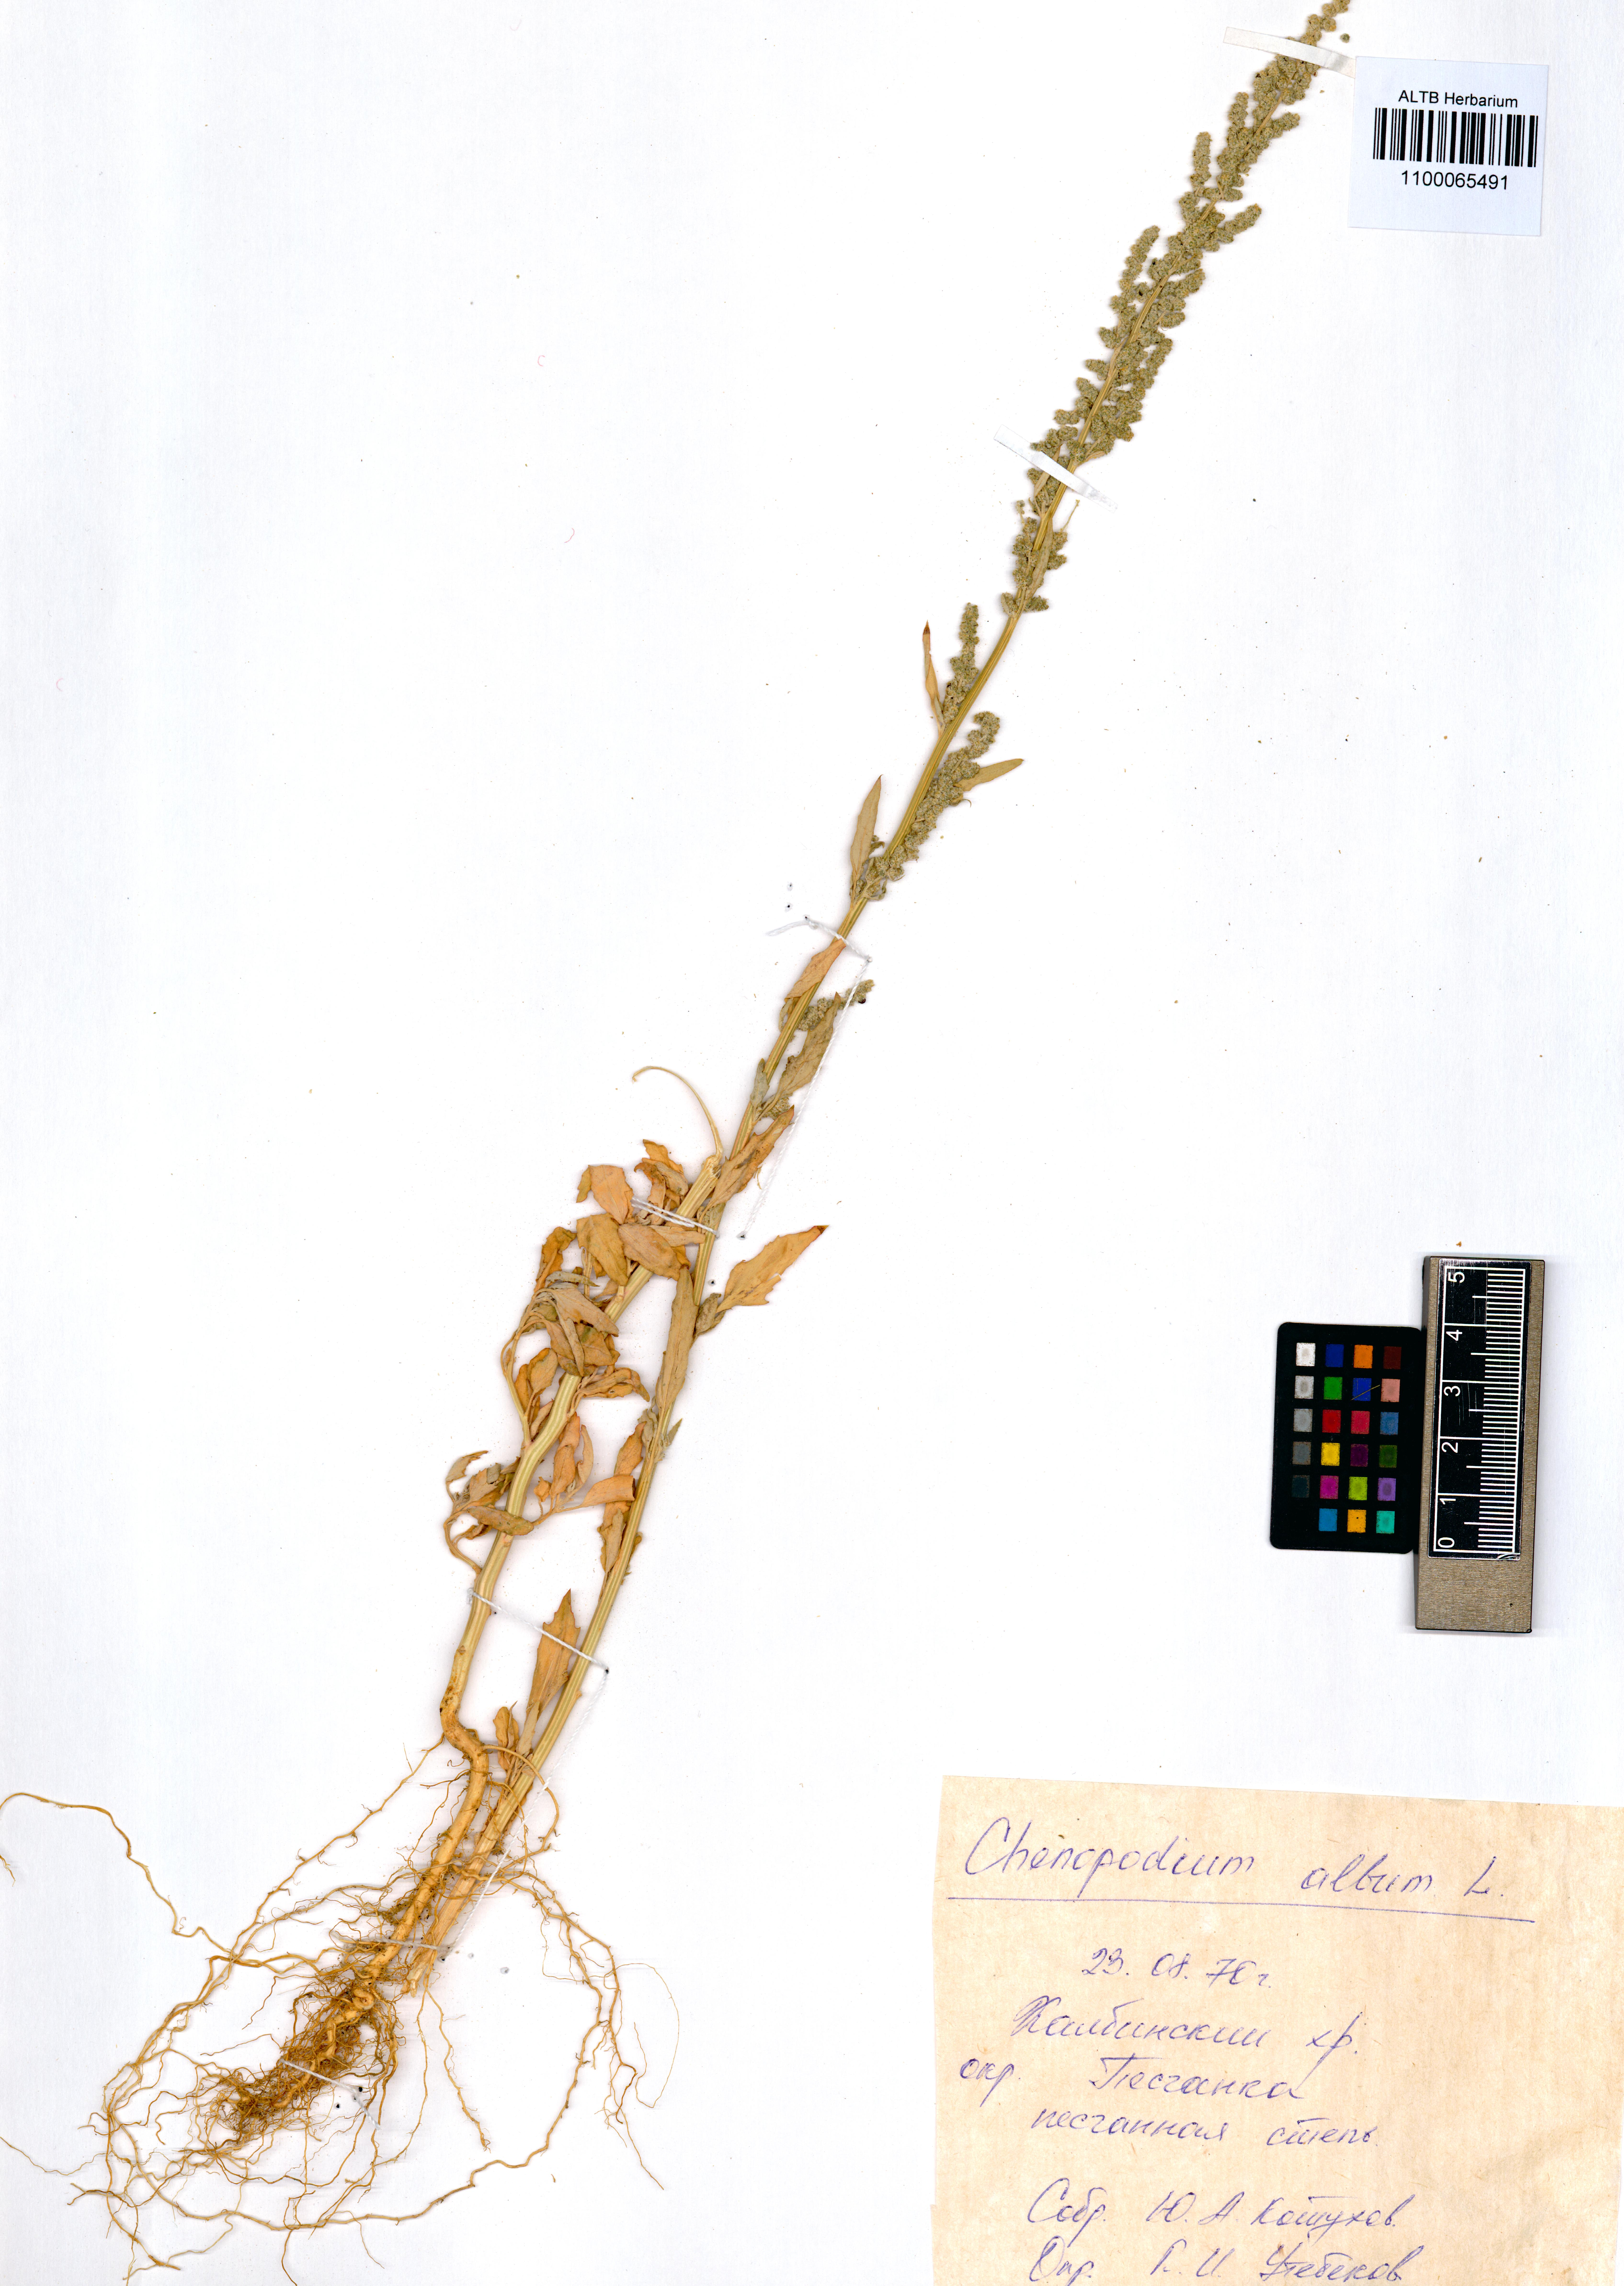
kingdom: Plantae
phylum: Tracheophyta
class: Magnoliopsida
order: Caryophyllales
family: Amaranthaceae
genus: Chenopodium
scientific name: Chenopodium album
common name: Fat-hen
